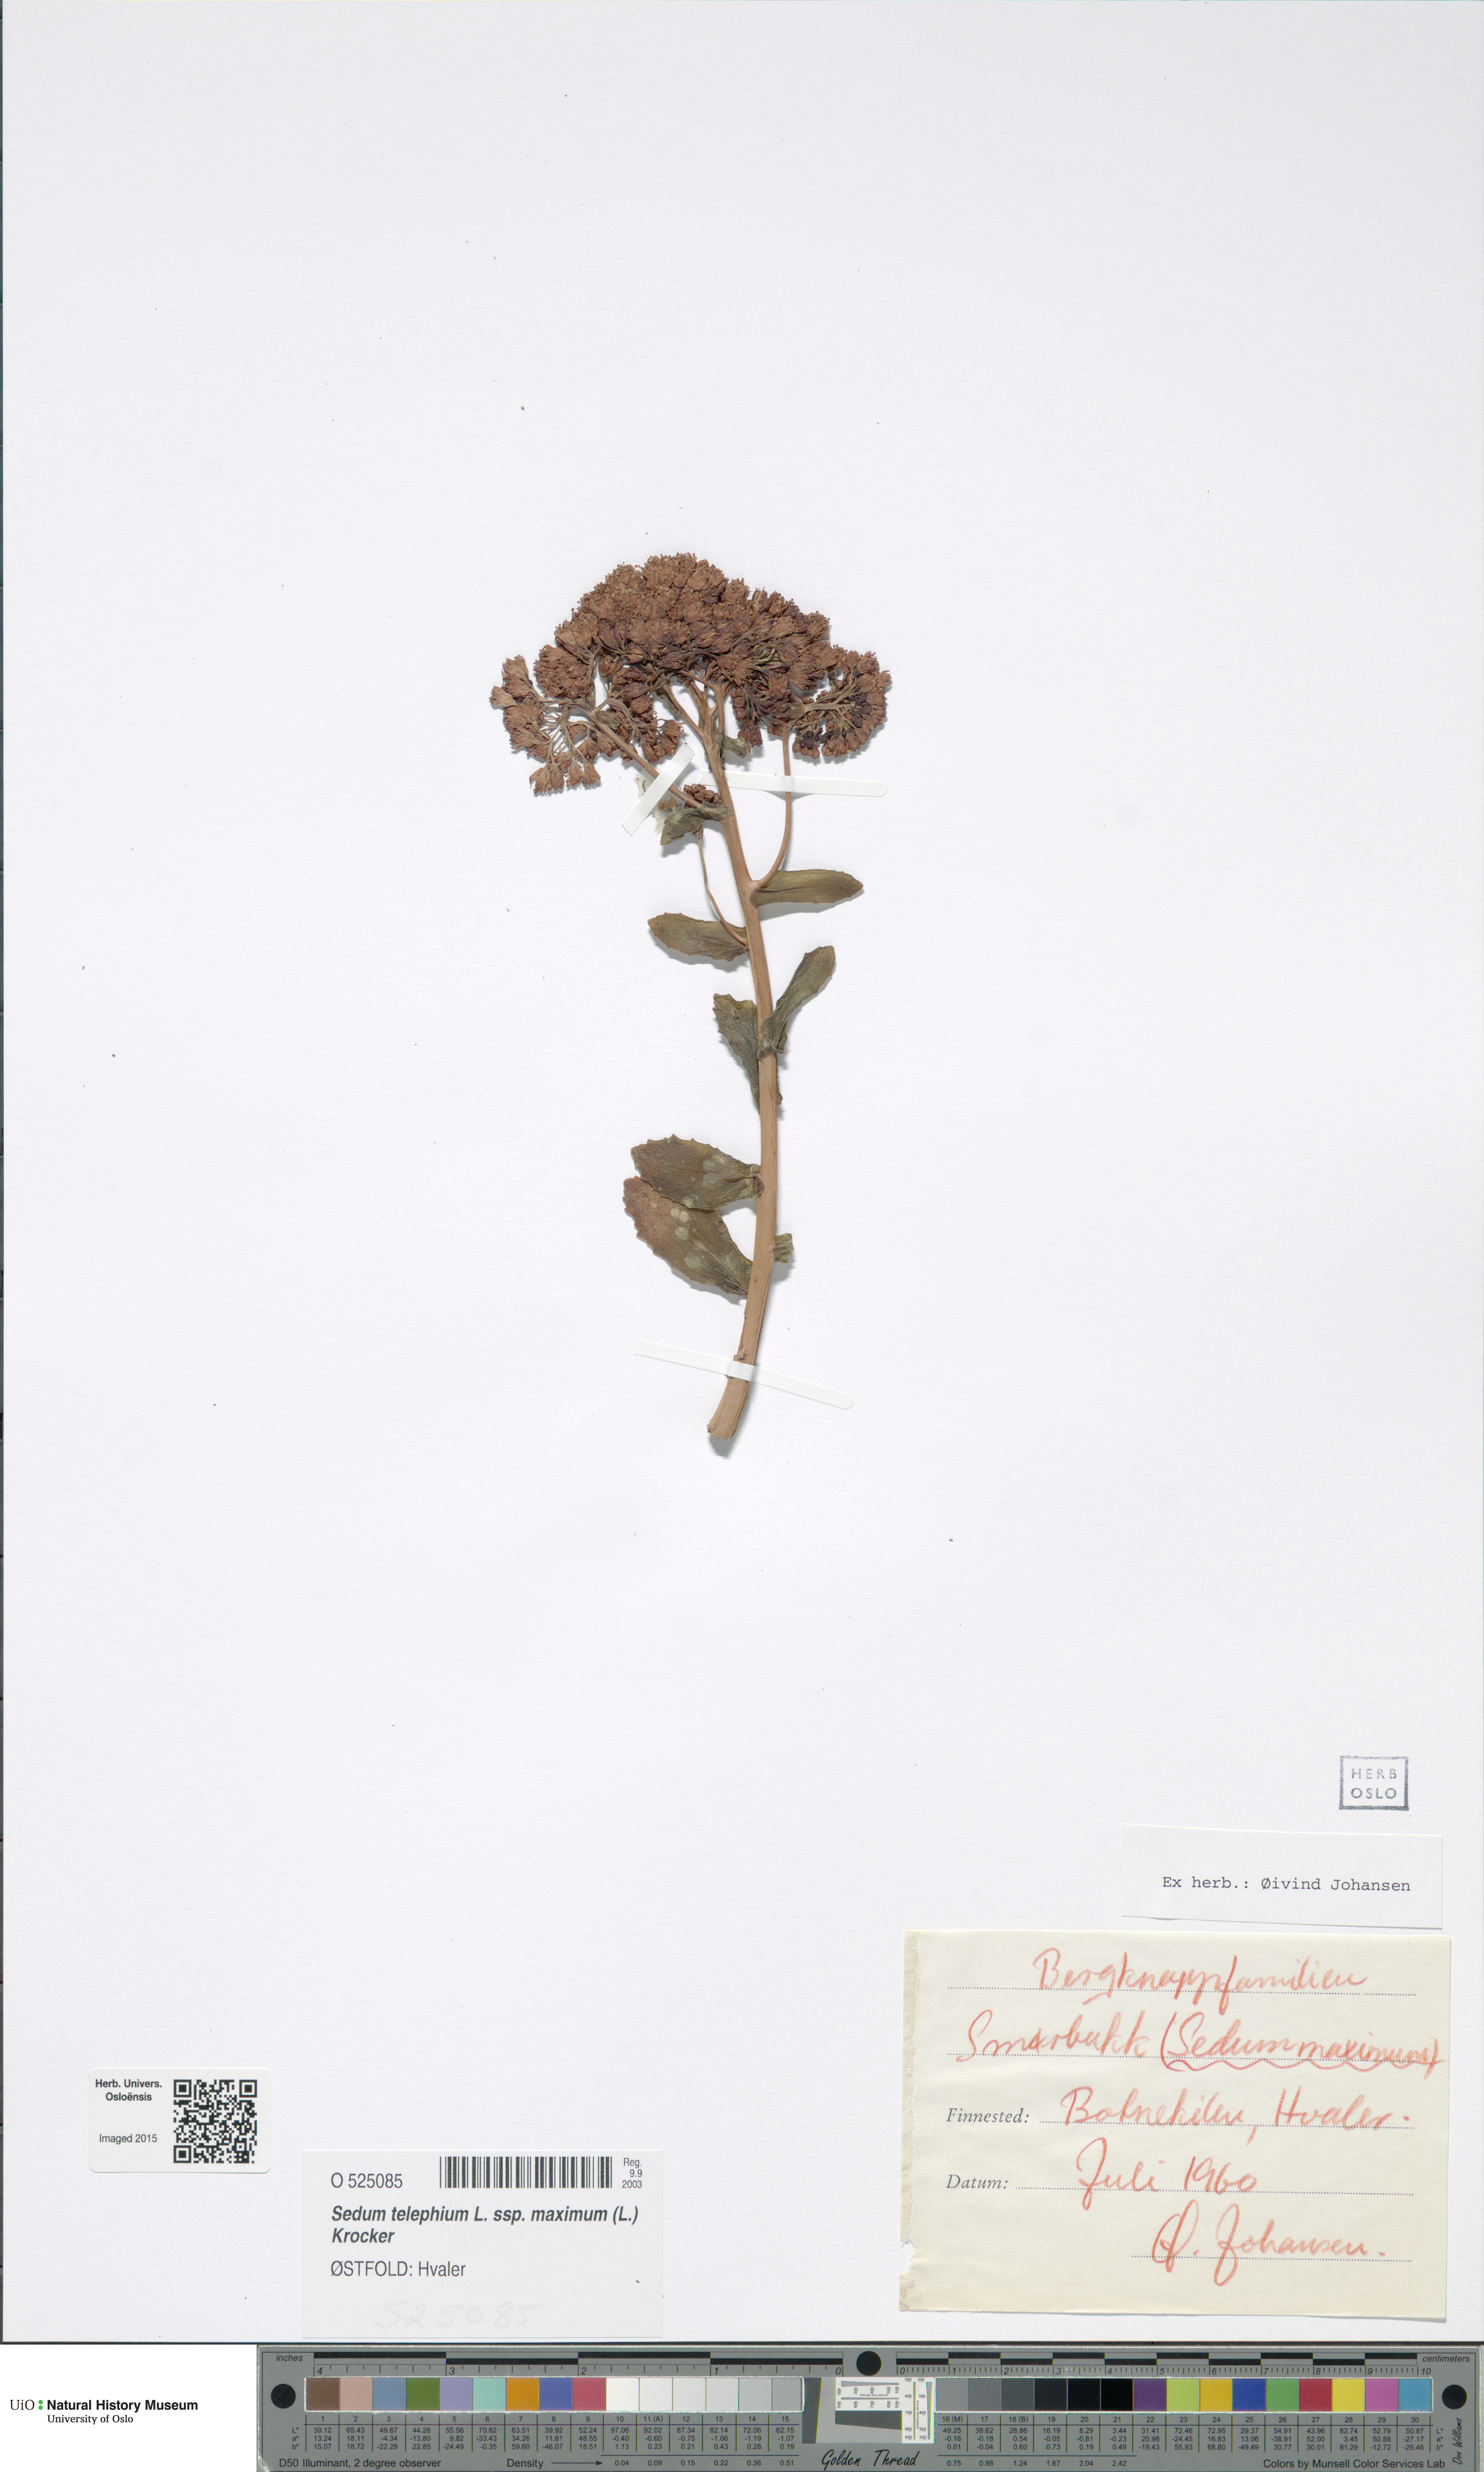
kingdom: Plantae
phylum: Tracheophyta
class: Magnoliopsida
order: Saxifragales
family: Crassulaceae
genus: Hylotelephium
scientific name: Hylotelephium maximum
